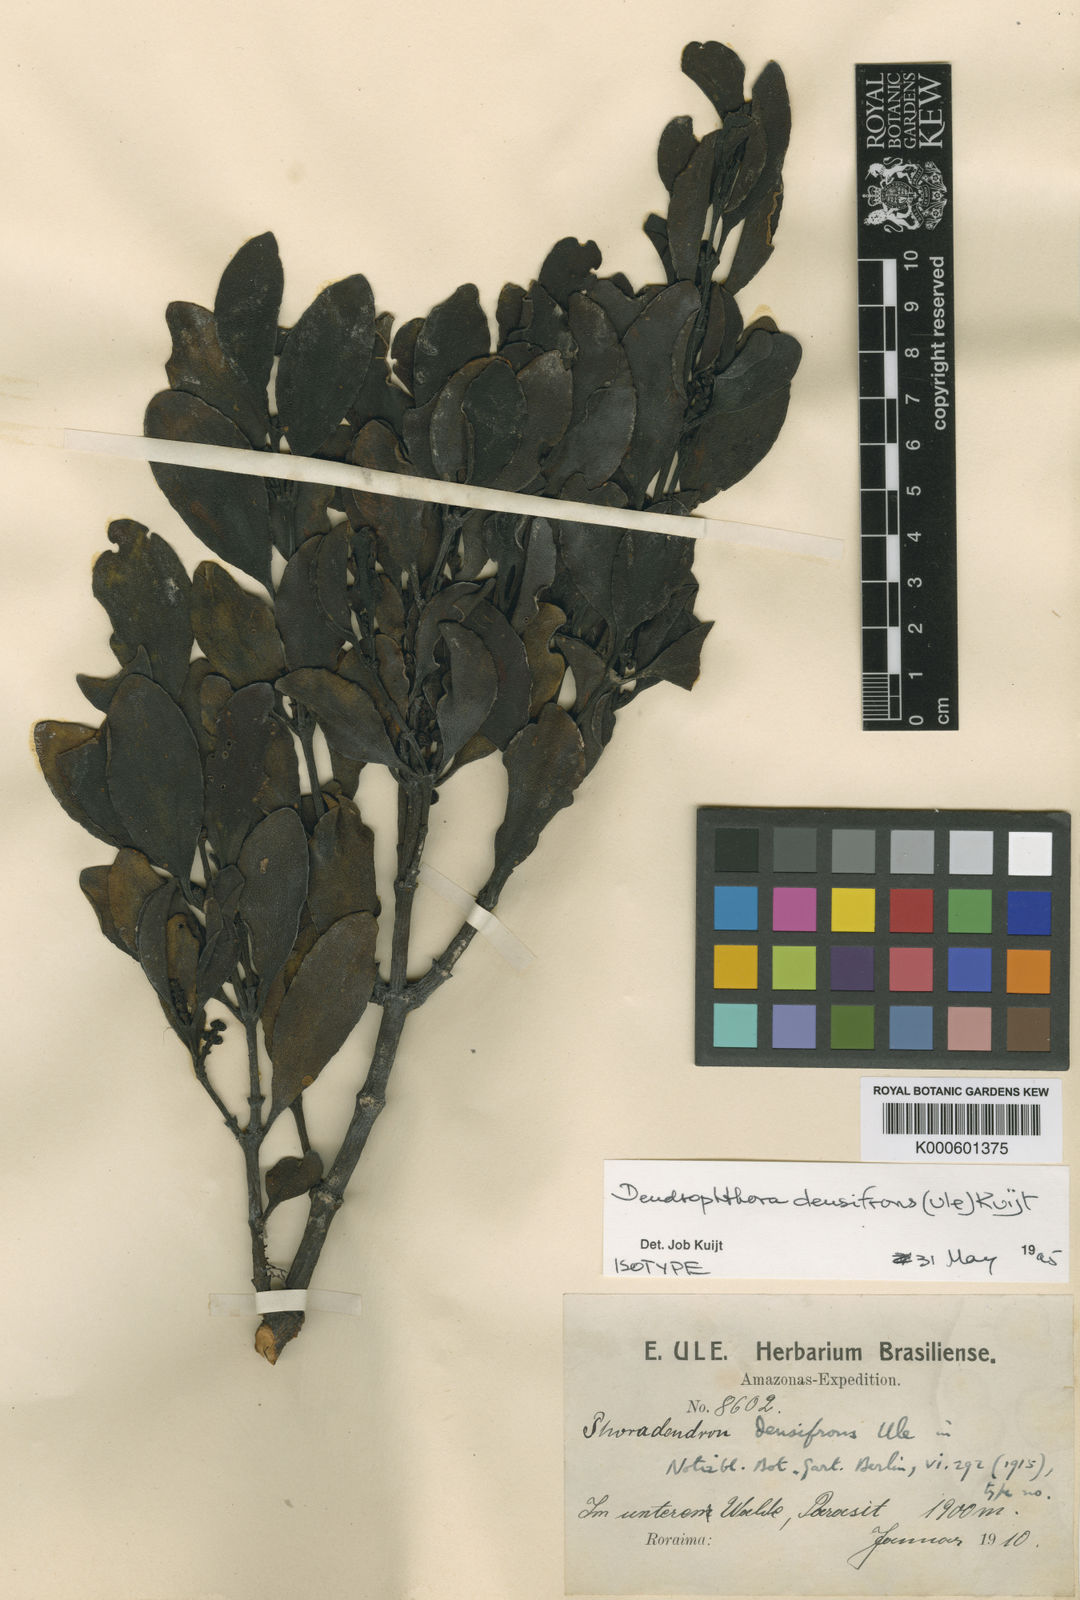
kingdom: Plantae
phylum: Tracheophyta
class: Magnoliopsida
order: Santalales
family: Viscaceae
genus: Dendrophthora
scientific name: Dendrophthora densifrons
